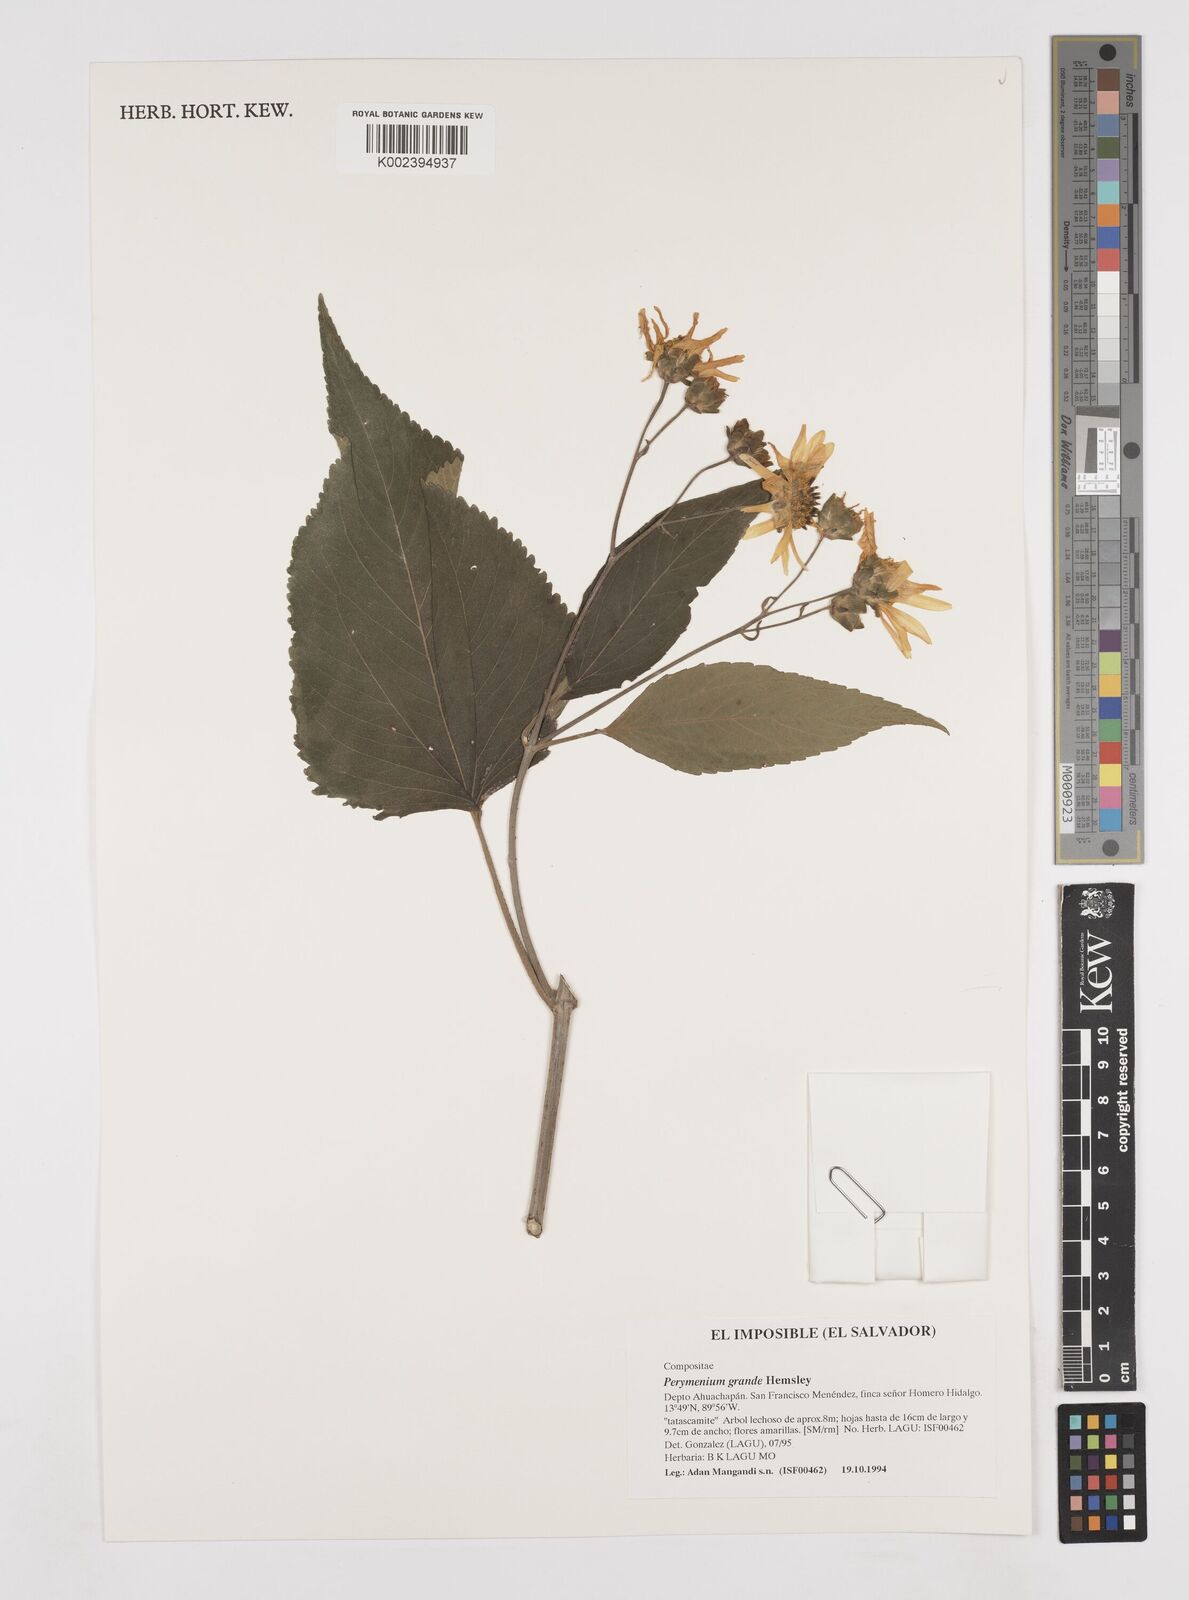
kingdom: Plantae
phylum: Tracheophyta
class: Magnoliopsida
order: Asterales
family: Asteraceae
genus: Perymenium
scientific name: Perymenium grande
